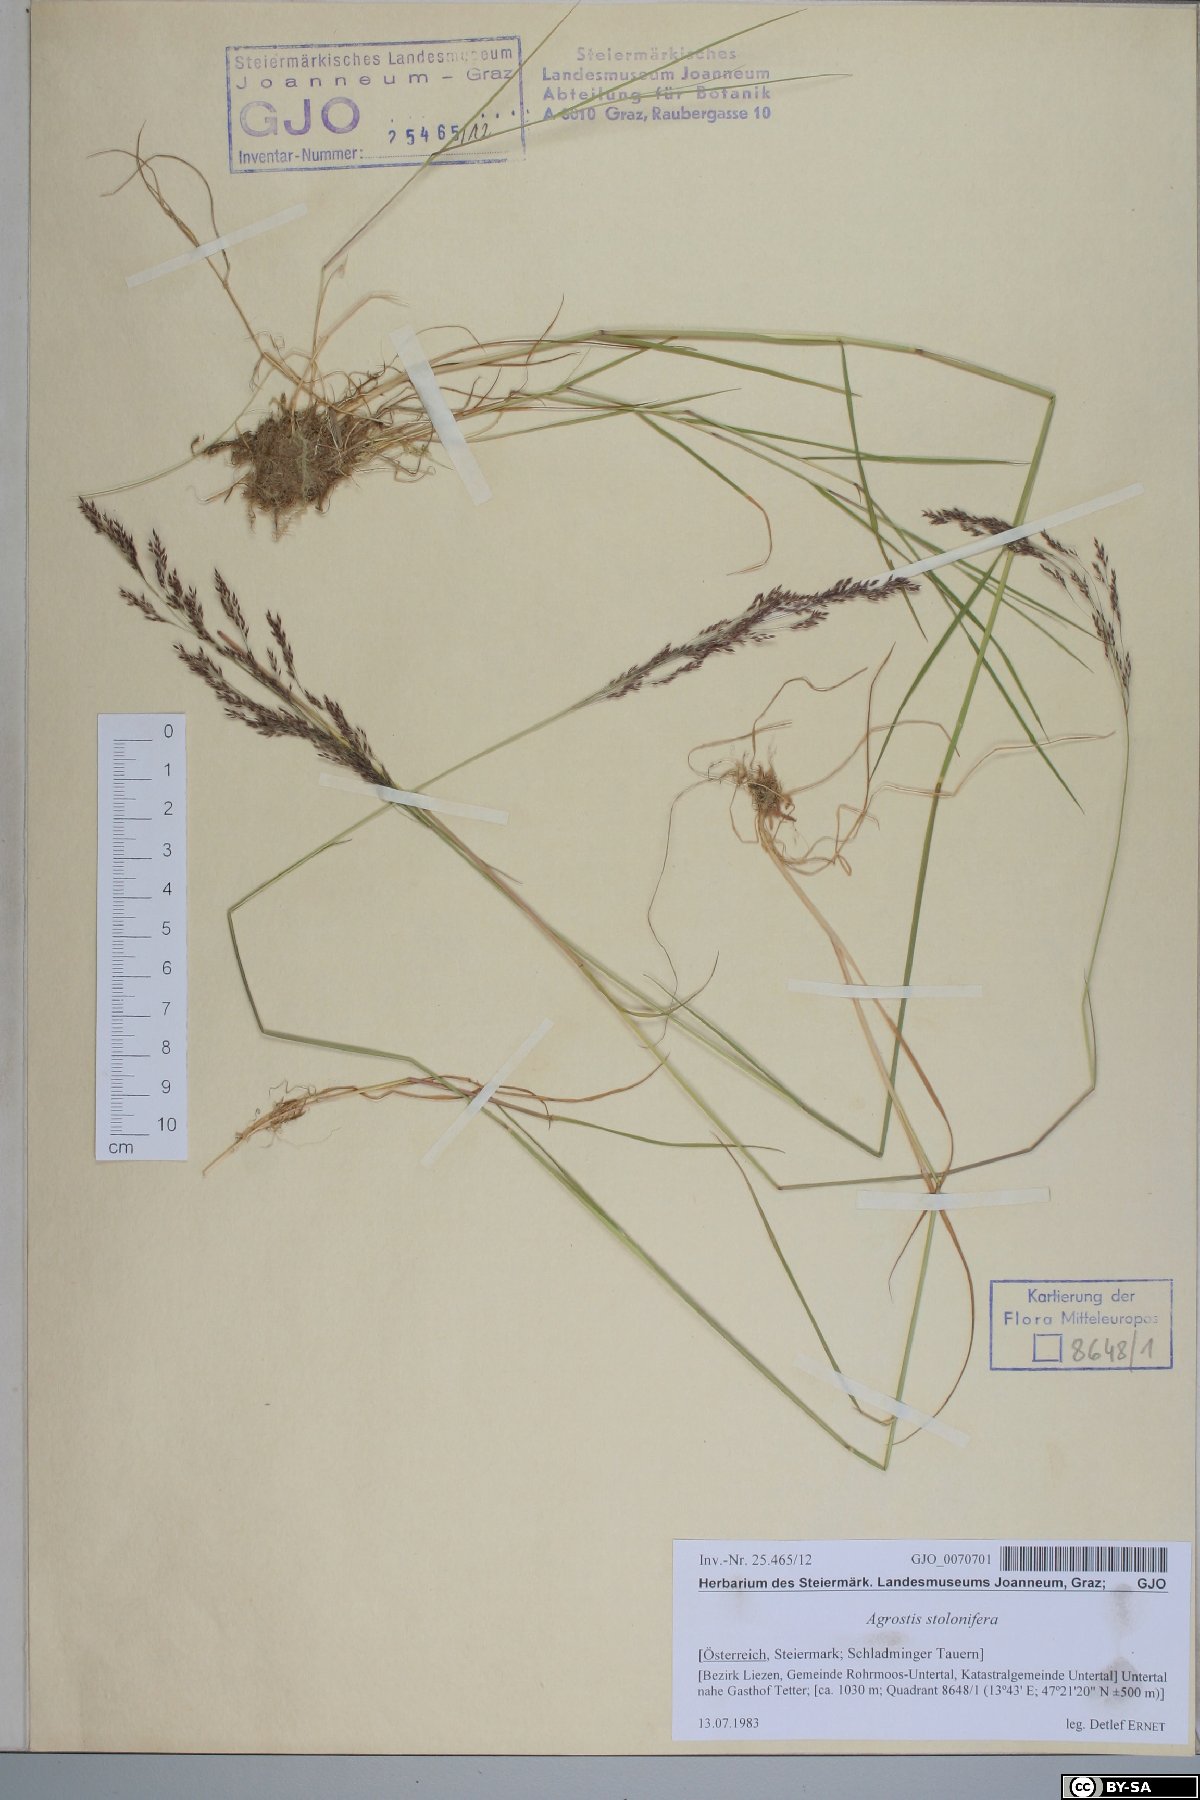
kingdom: Plantae
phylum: Tracheophyta
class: Liliopsida
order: Poales
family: Poaceae
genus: Agrostis
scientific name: Agrostis stolonifera
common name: Creeping bentgrass
